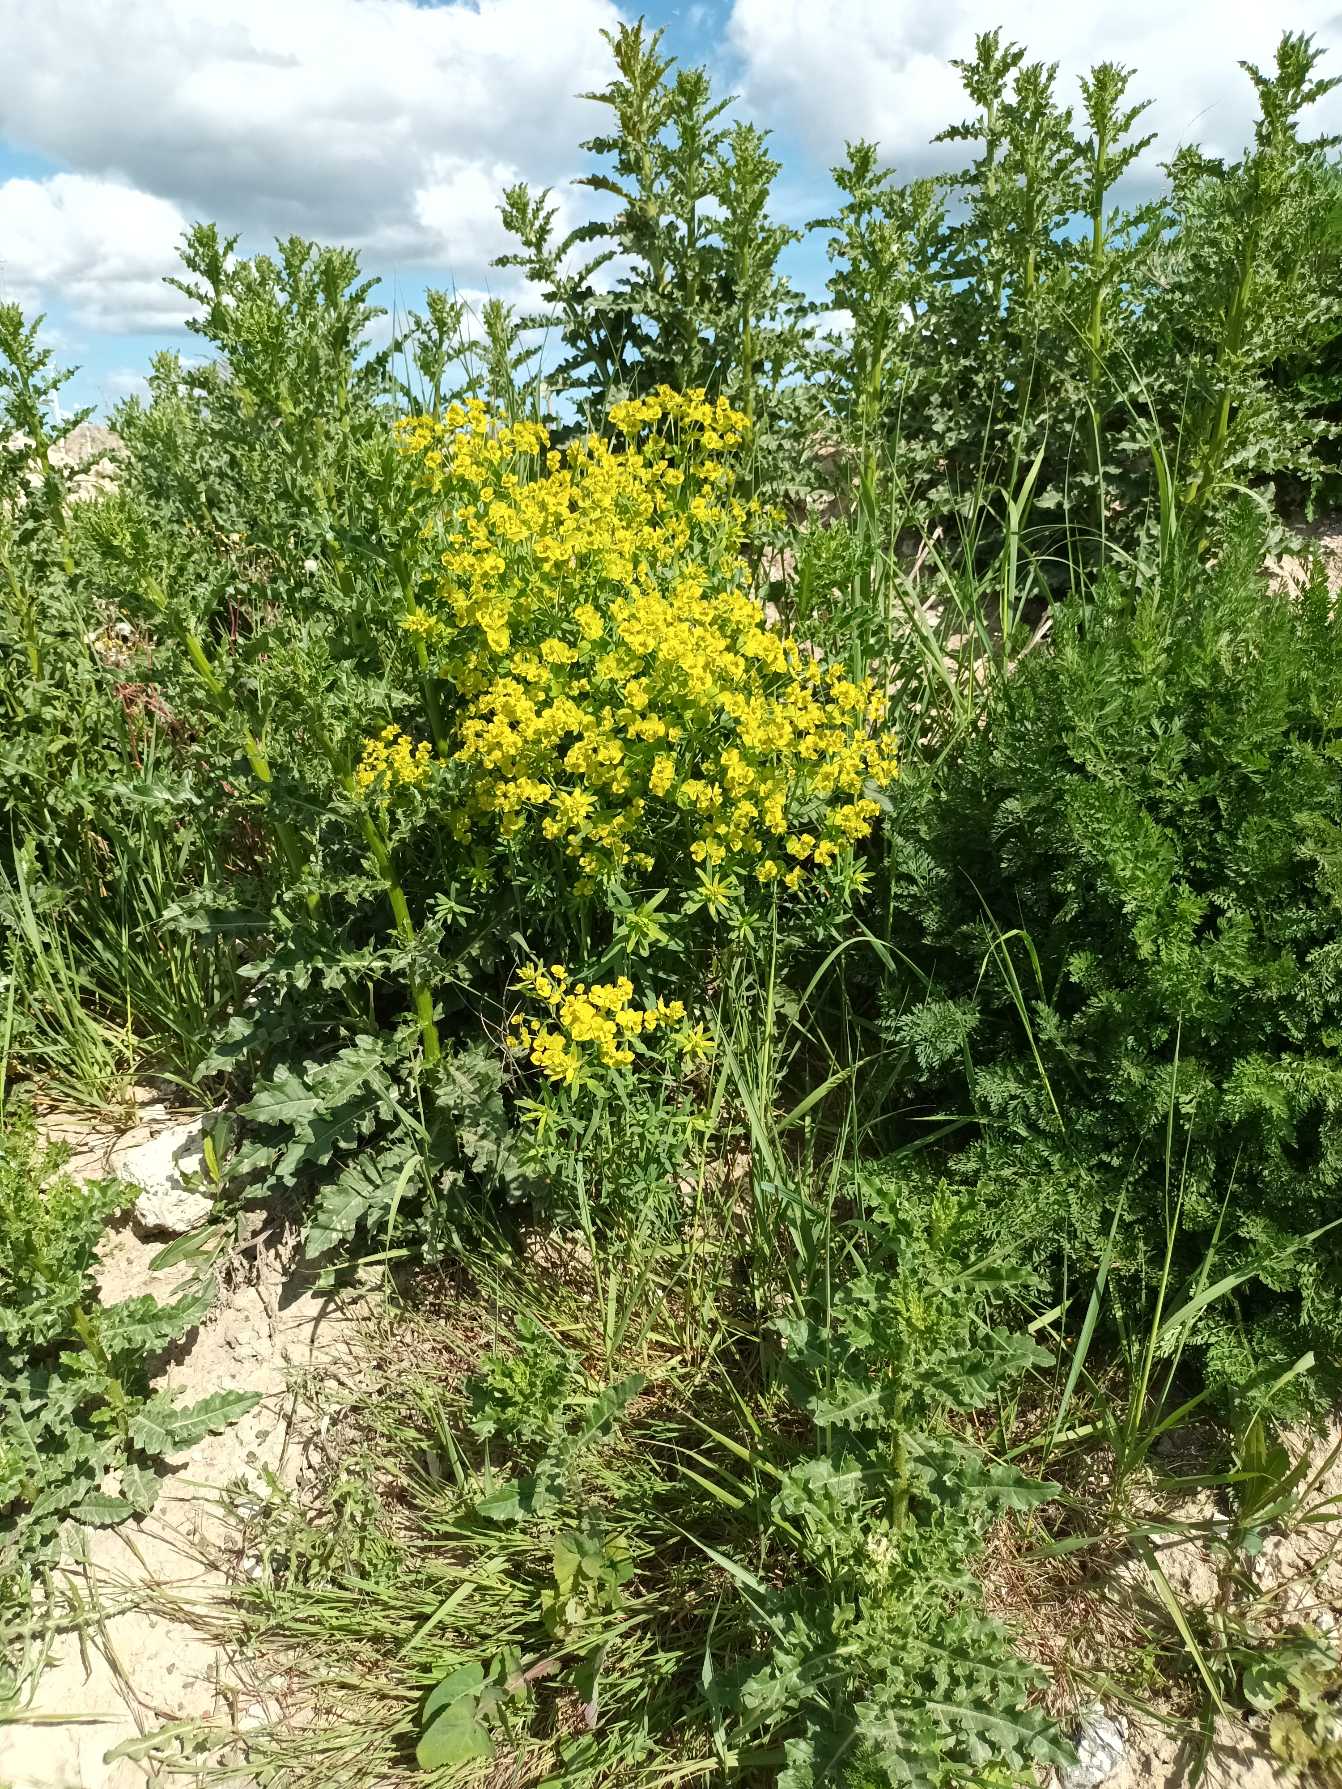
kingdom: Plantae
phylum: Tracheophyta
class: Magnoliopsida
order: Malpighiales
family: Euphorbiaceae
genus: Euphorbia
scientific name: Euphorbia esula
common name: Langbladet vortemælk (underart)
